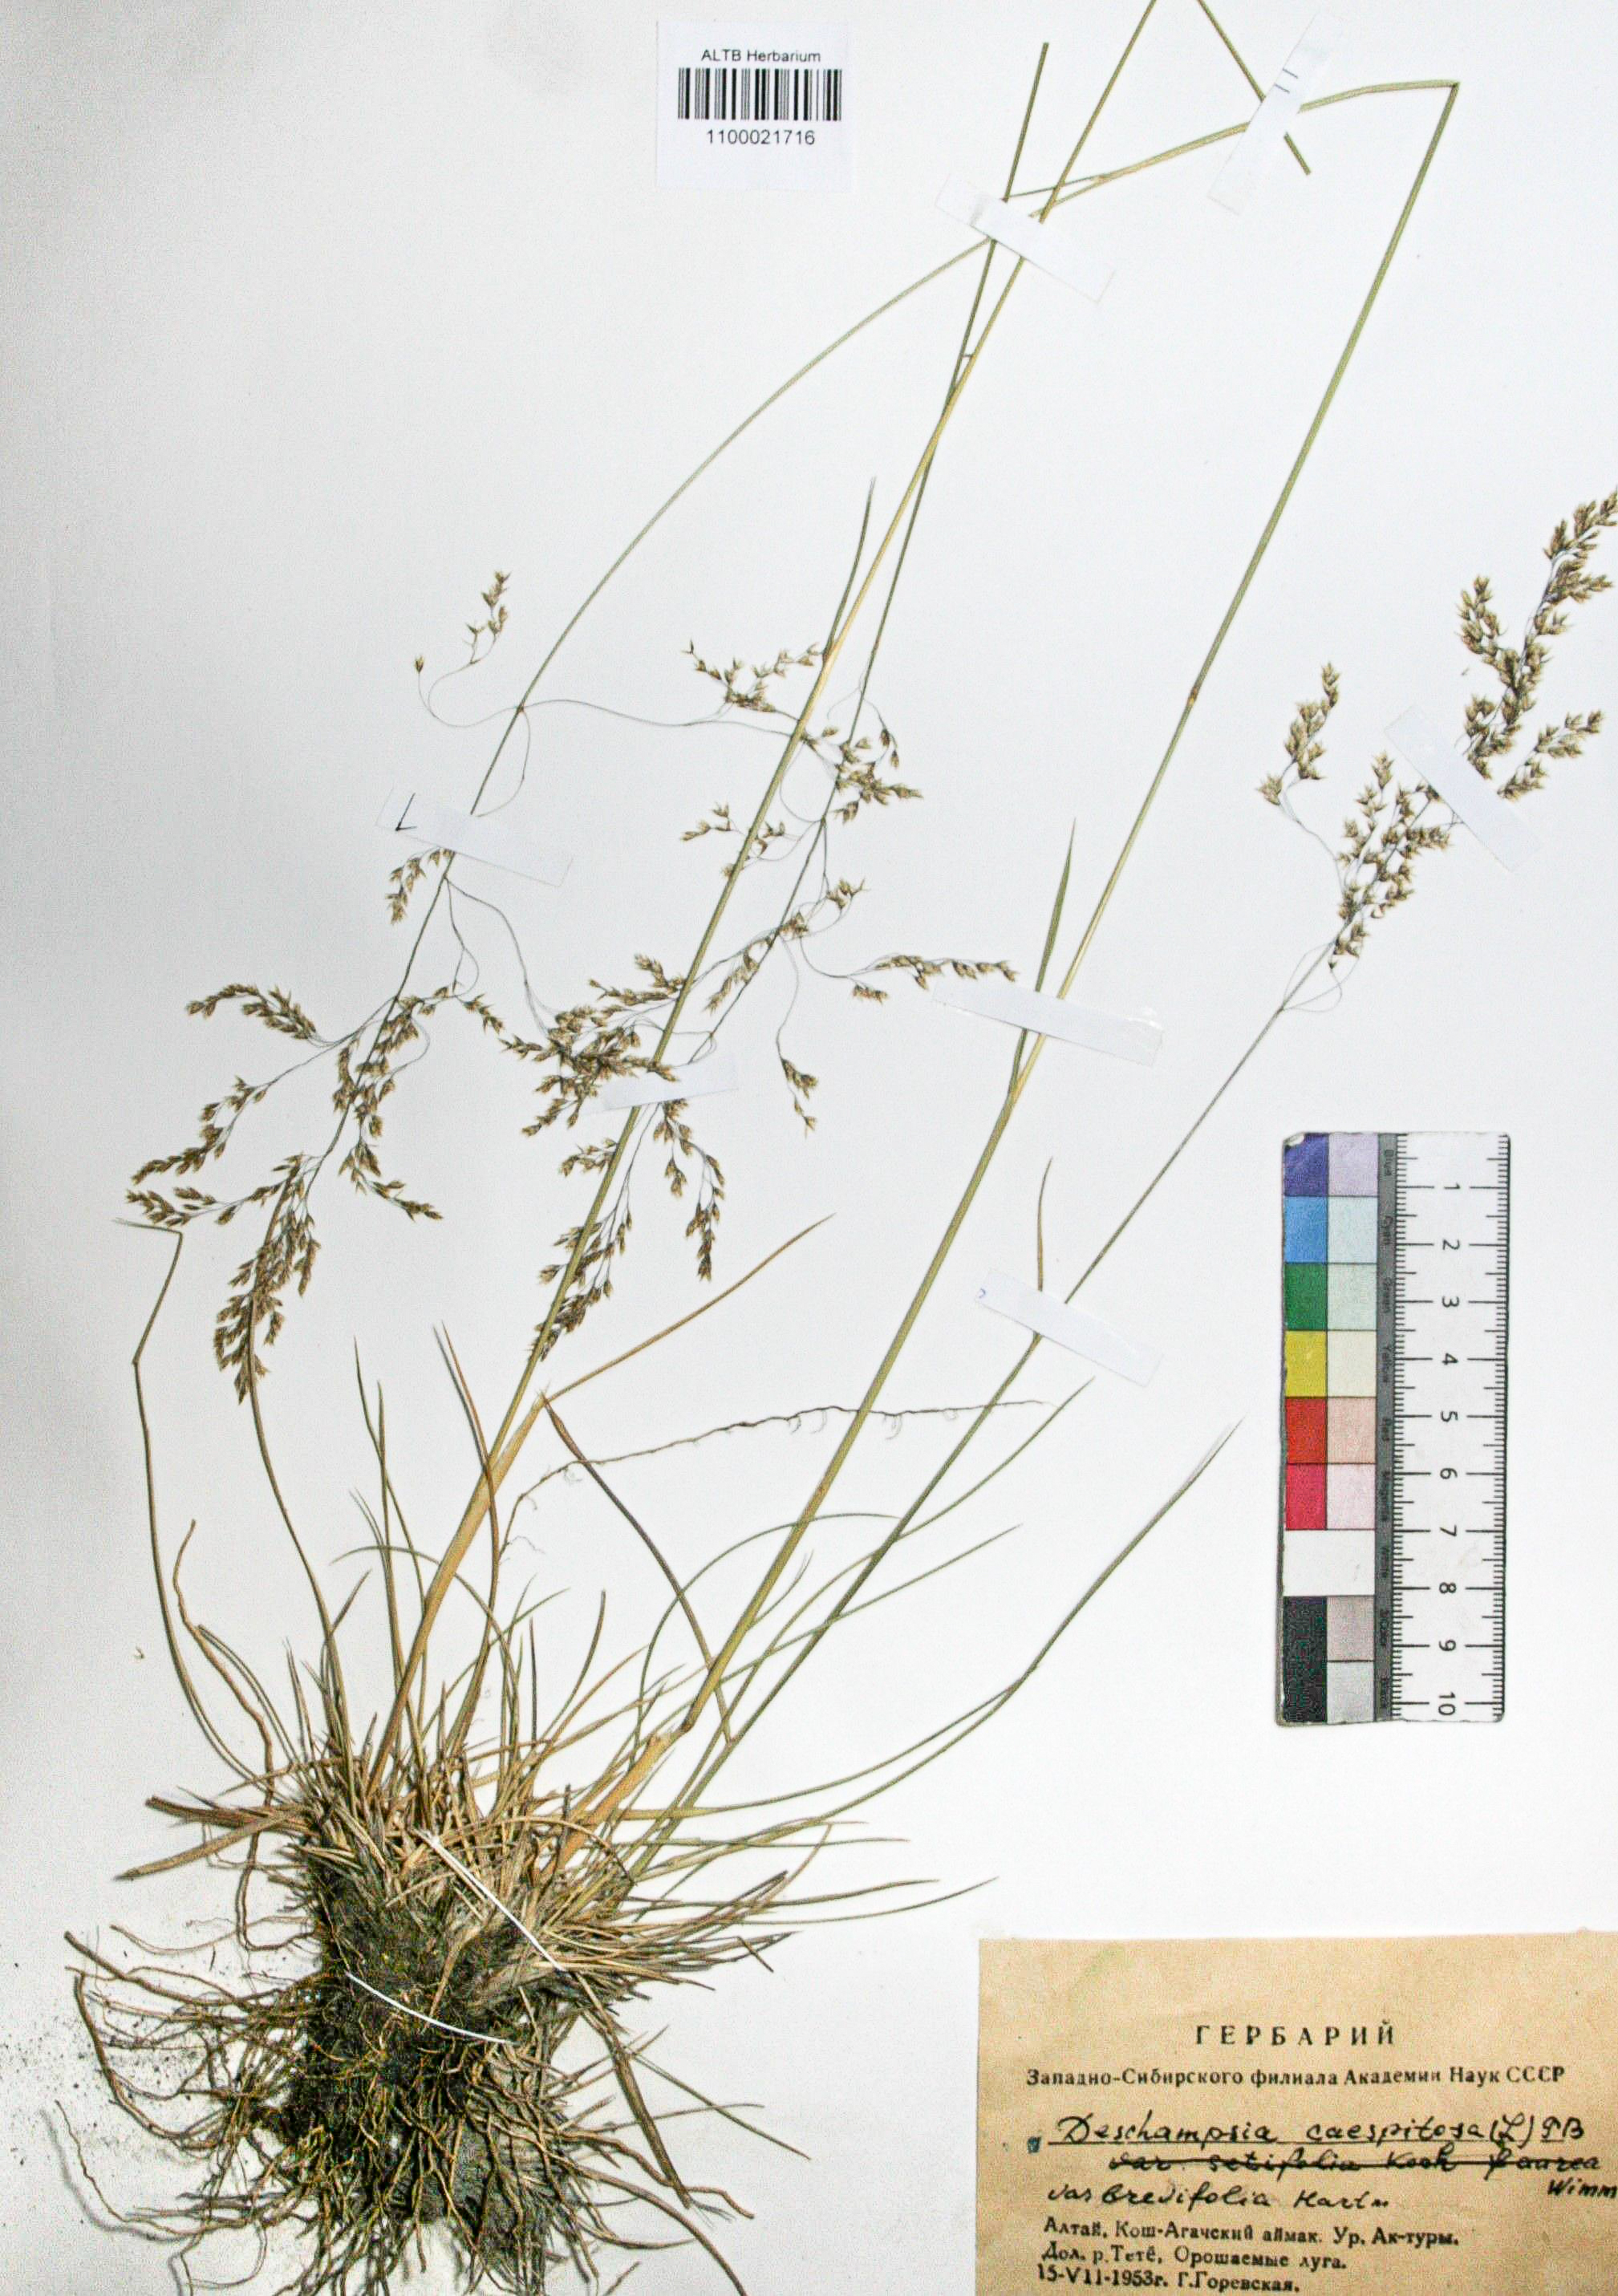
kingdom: Plantae
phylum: Tracheophyta
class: Liliopsida
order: Poales
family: Poaceae
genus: Deschampsia
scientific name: Deschampsia cespitosa
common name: Tufted hair-grass
